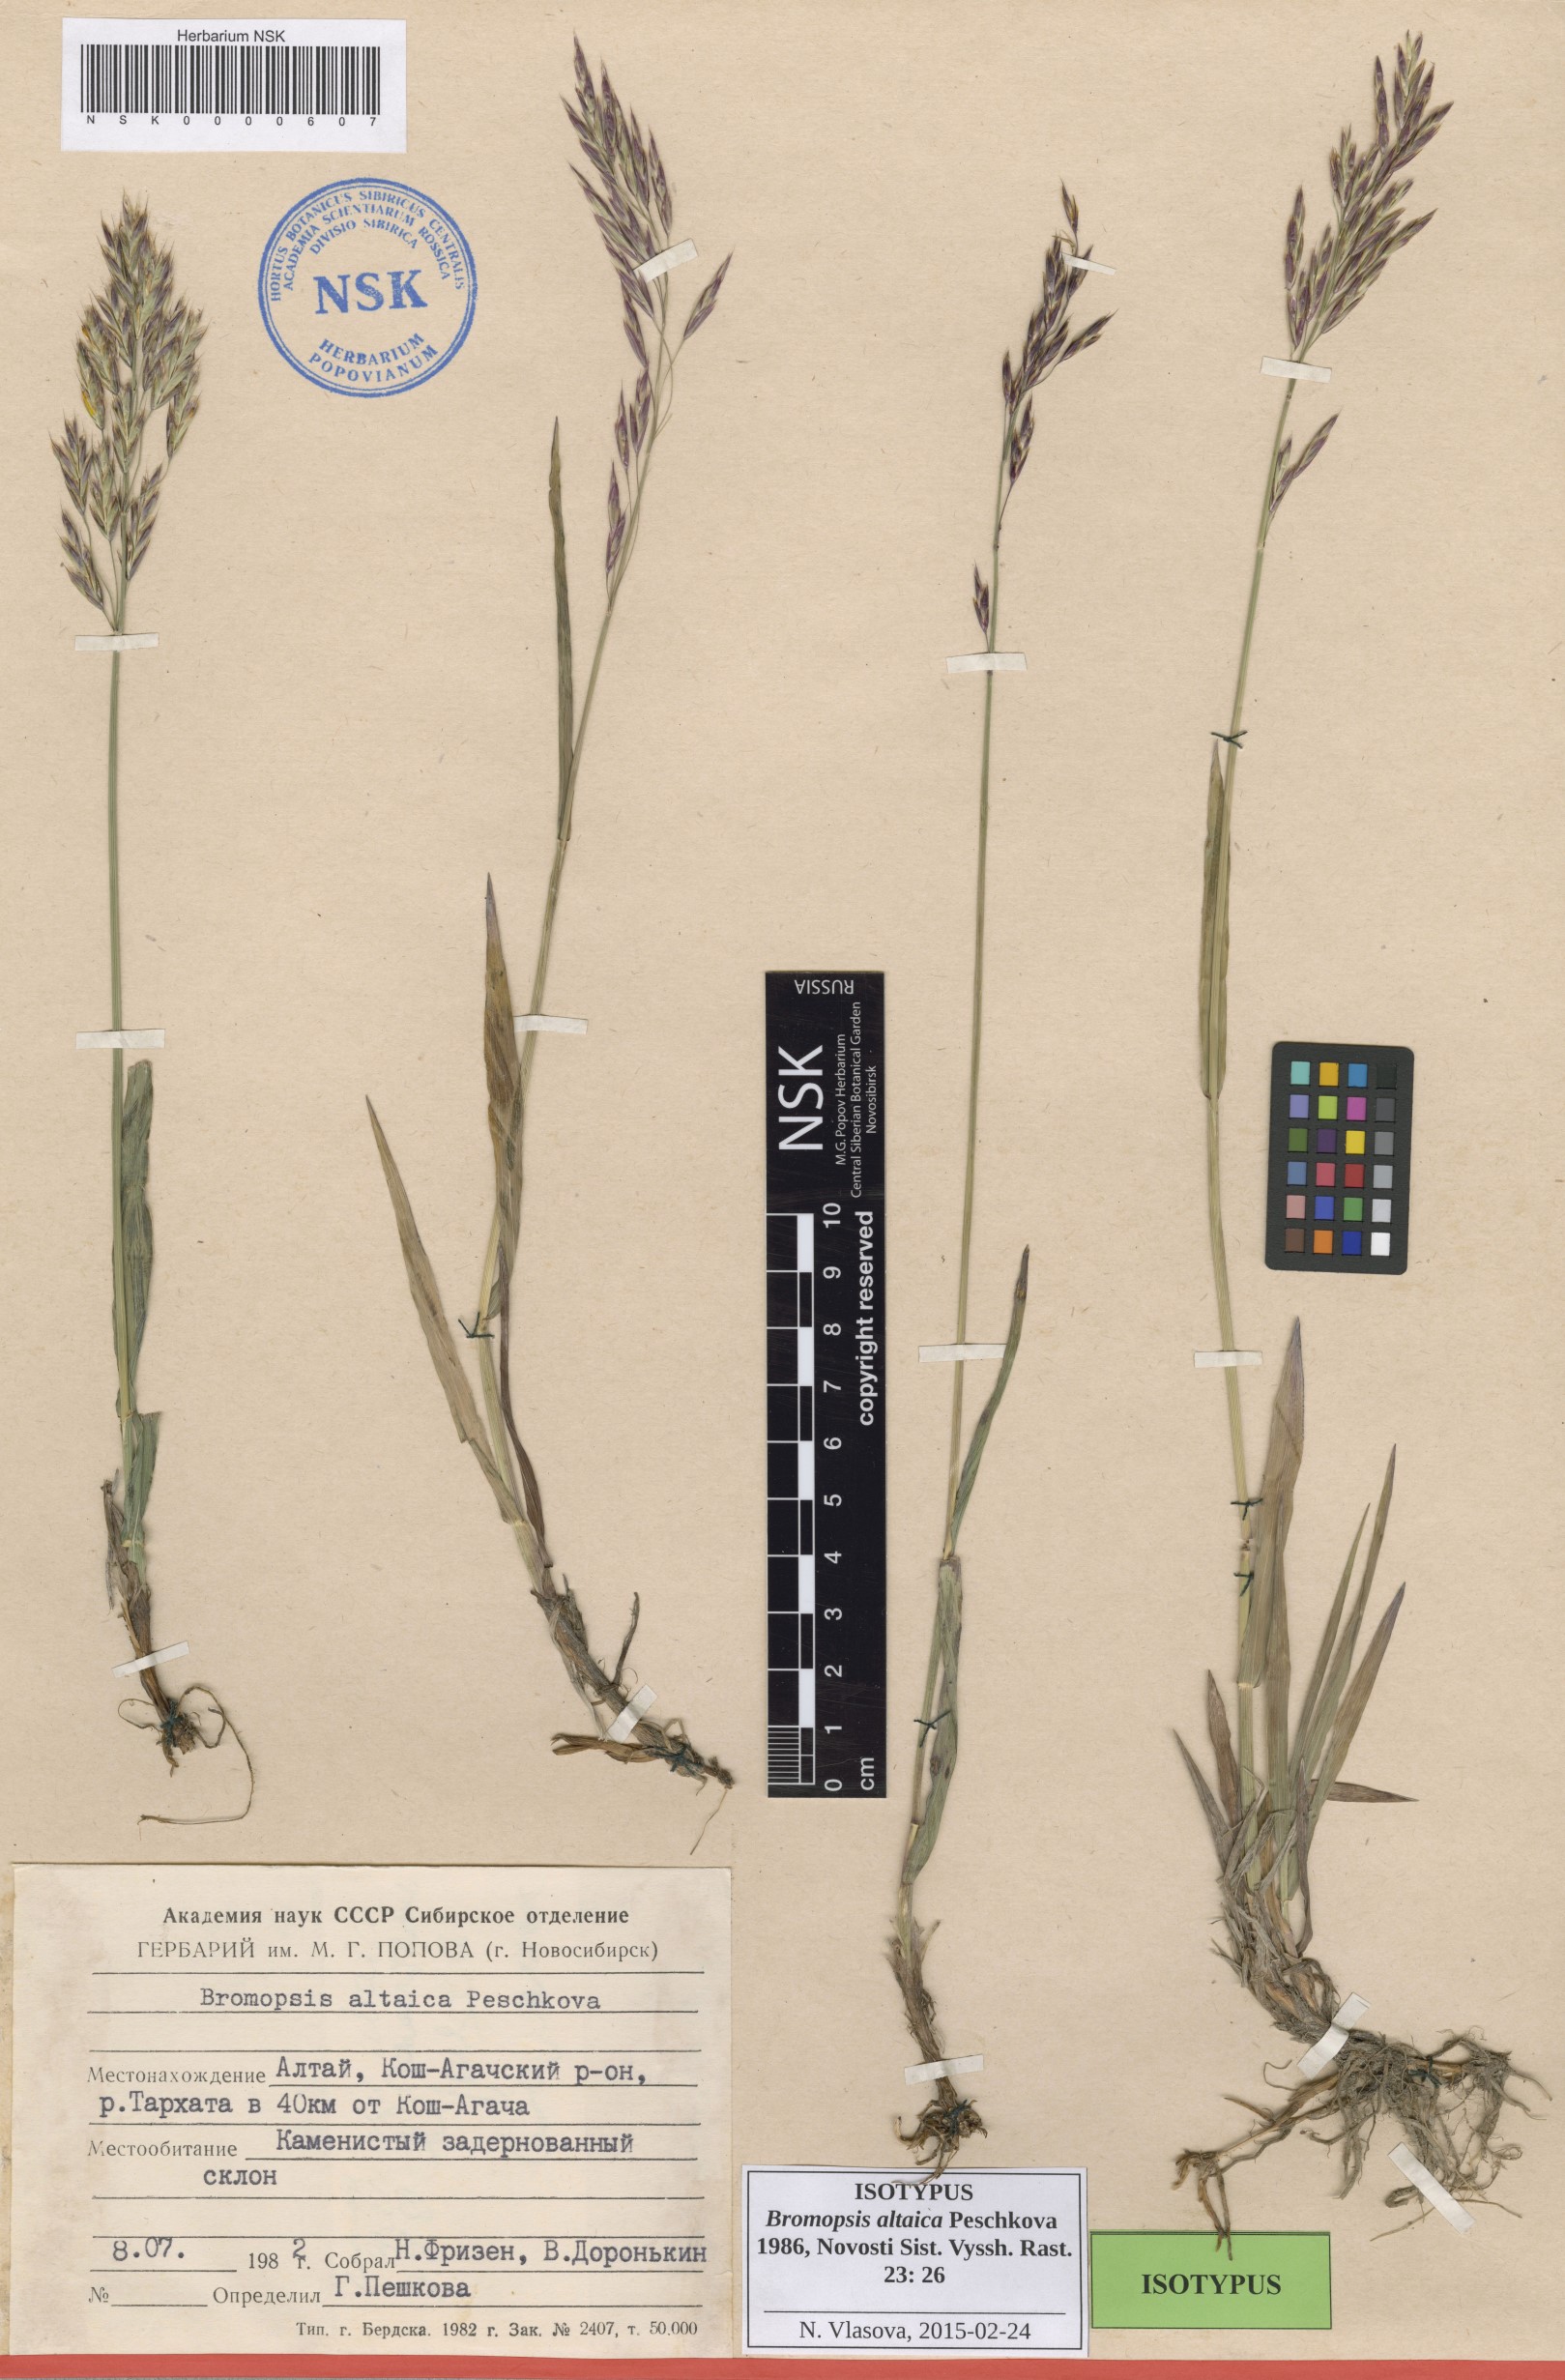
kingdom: Plantae
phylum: Tracheophyta
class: Liliopsida
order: Poales
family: Poaceae
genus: Bromus
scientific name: Bromus pumpellianus
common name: Pumpelly's brome
